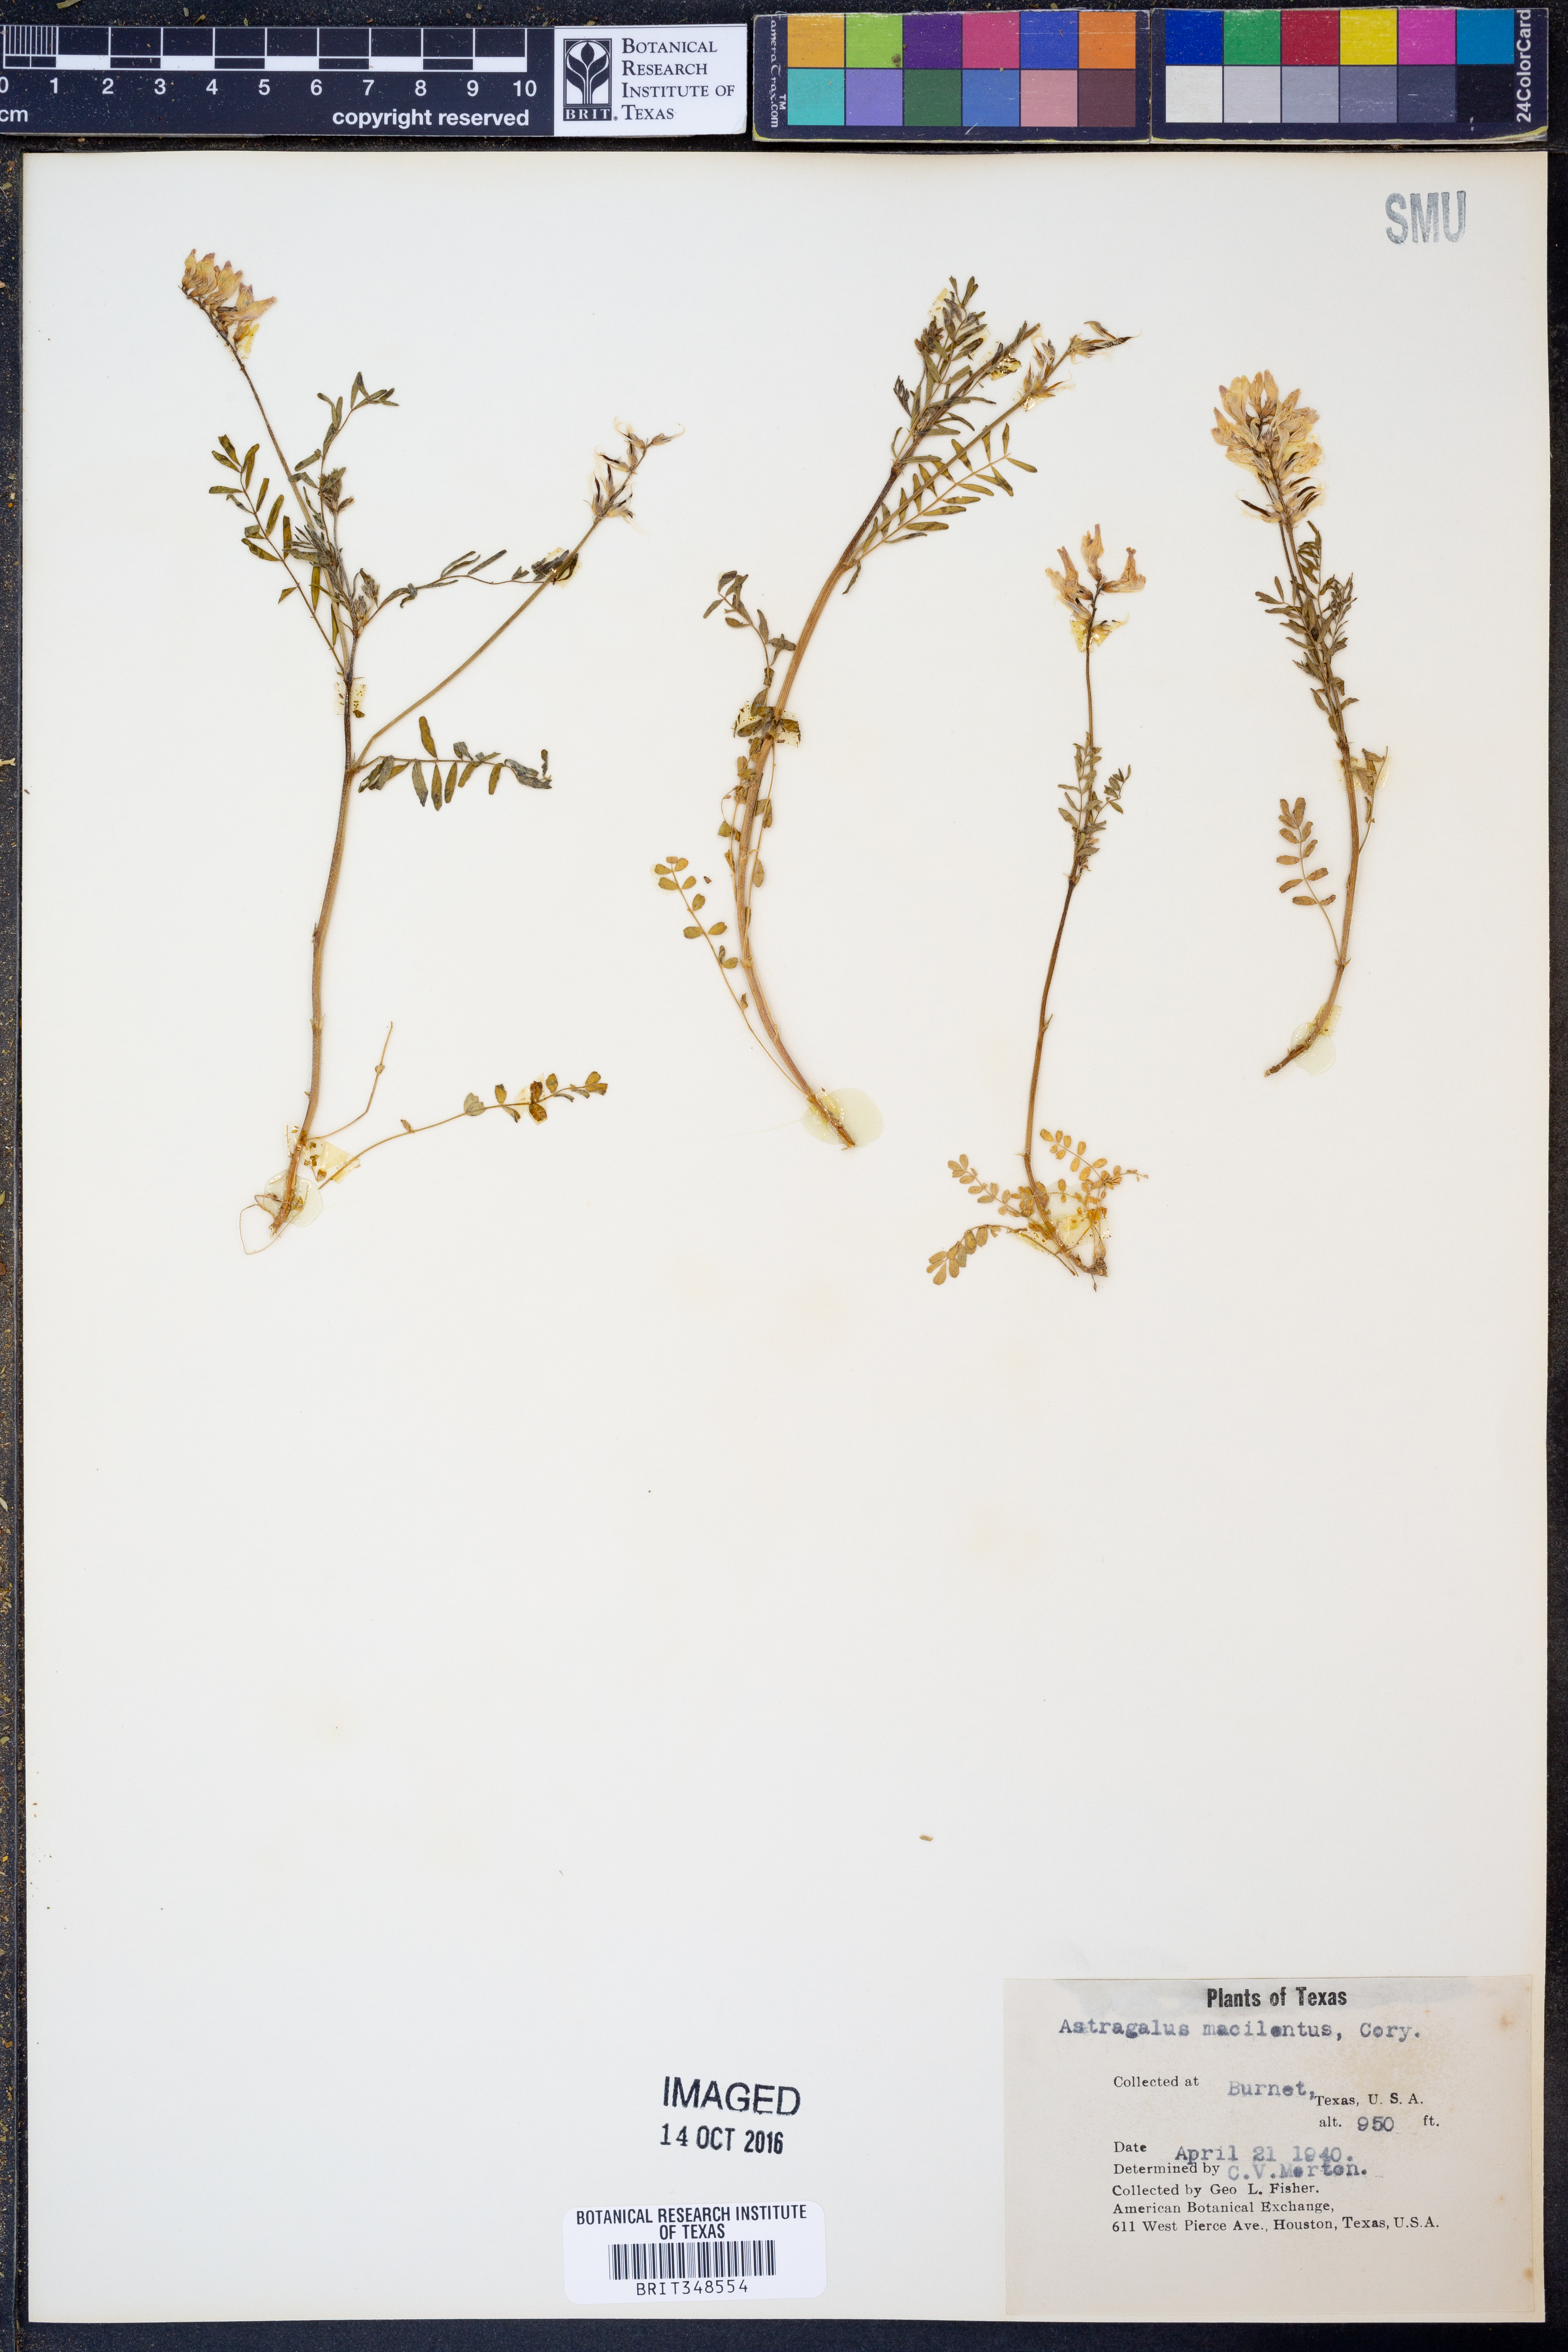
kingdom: Plantae
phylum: Tracheophyta
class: Magnoliopsida
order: Fabales
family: Fabaceae
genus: Astragalus
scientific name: Astragalus nuttallianus
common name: Smallflowered milkvetch
